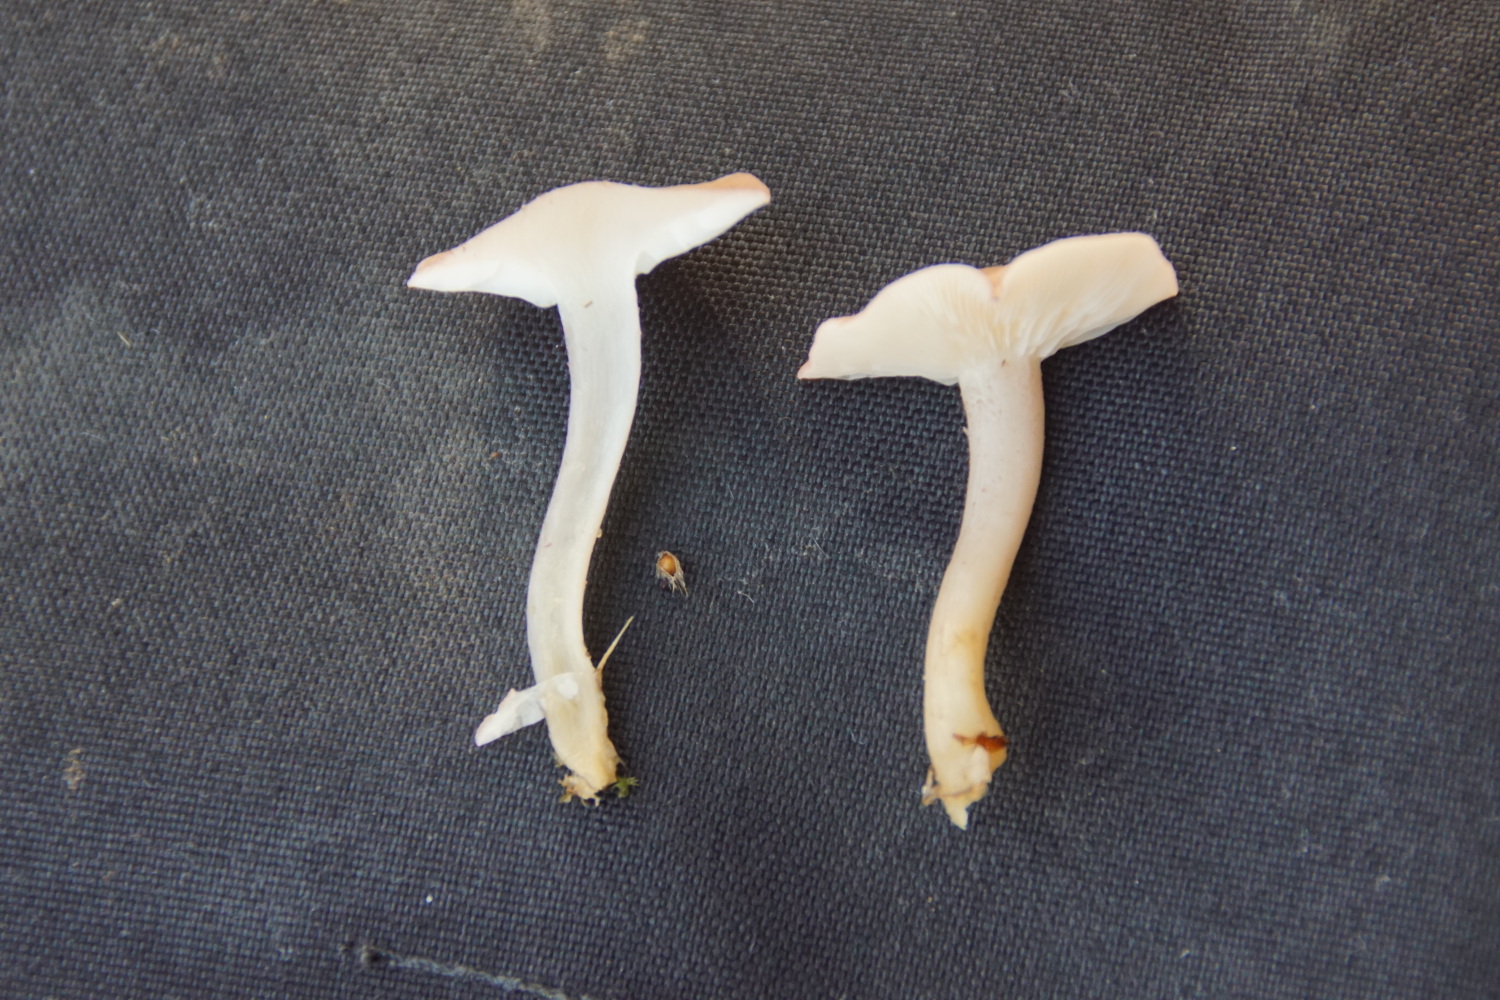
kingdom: Fungi
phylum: Basidiomycota
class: Agaricomycetes
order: Agaricales
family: Lyophyllaceae
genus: Calocybe
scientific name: Calocybe carnea
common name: rosa fagerhat
